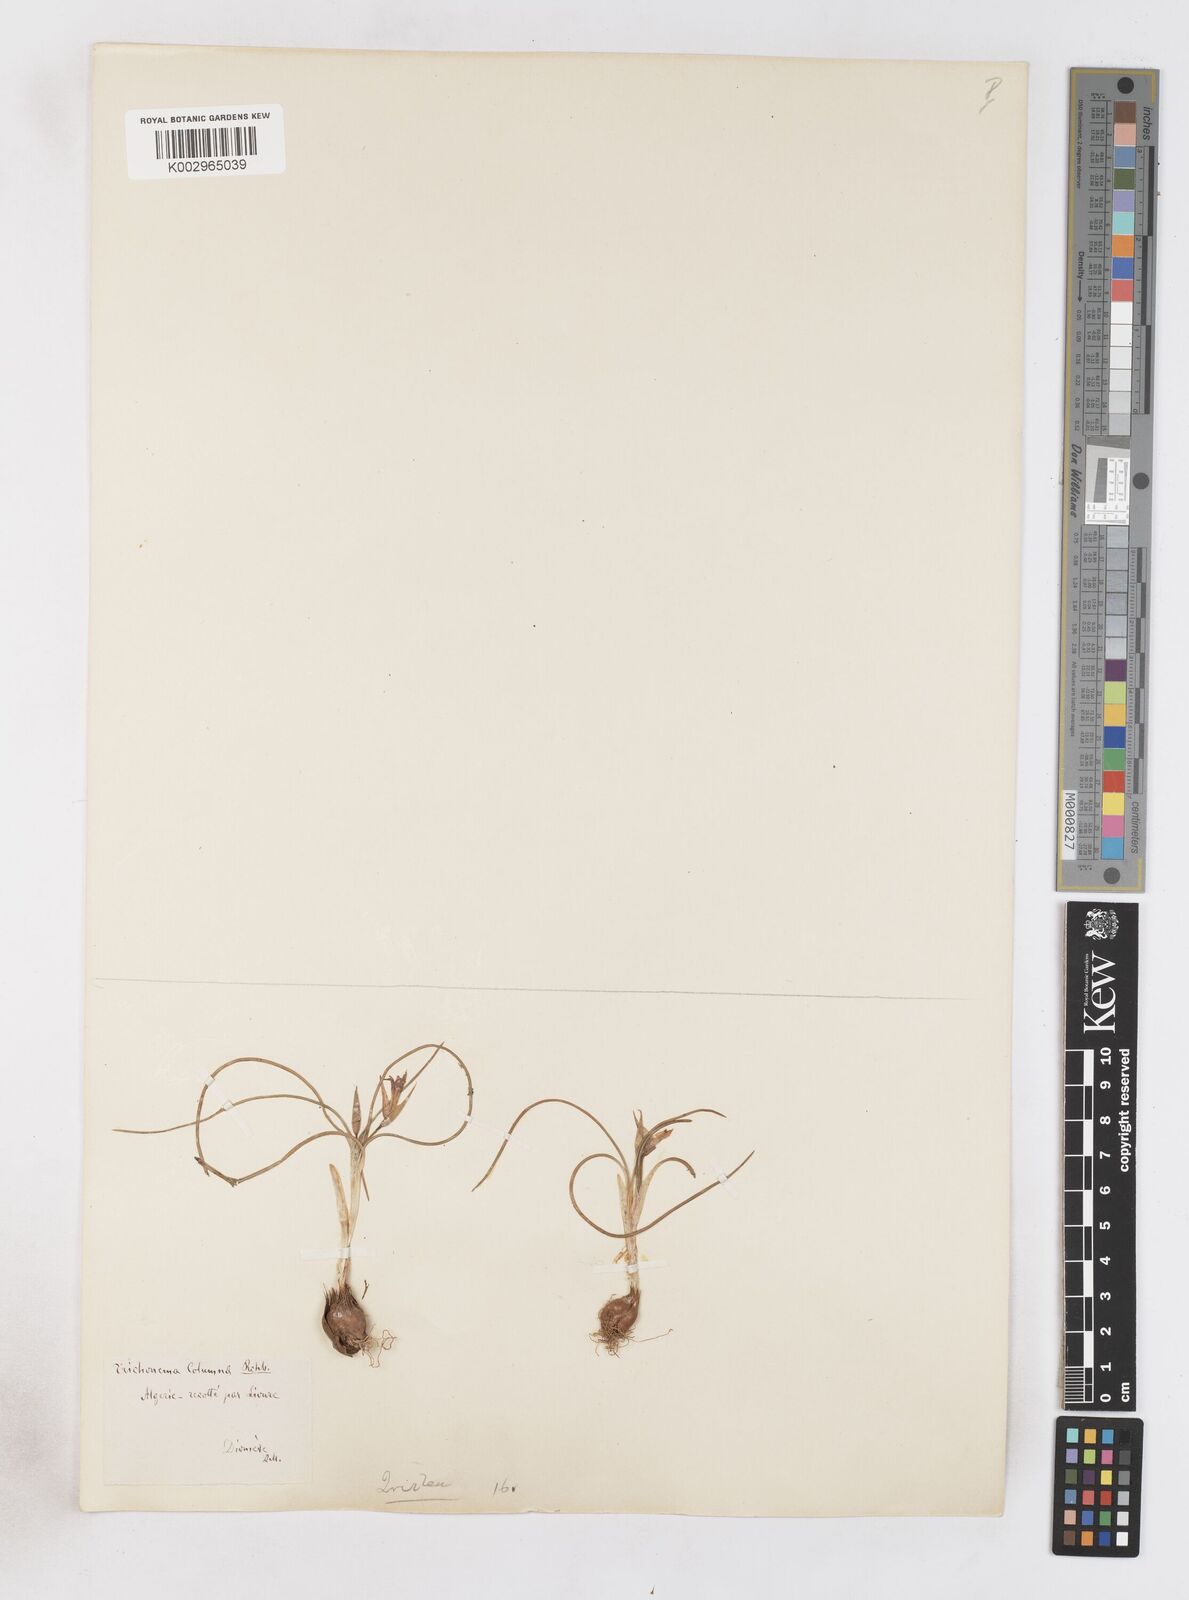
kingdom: Plantae
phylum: Tracheophyta
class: Liliopsida
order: Asparagales
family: Iridaceae
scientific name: Iridaceae
